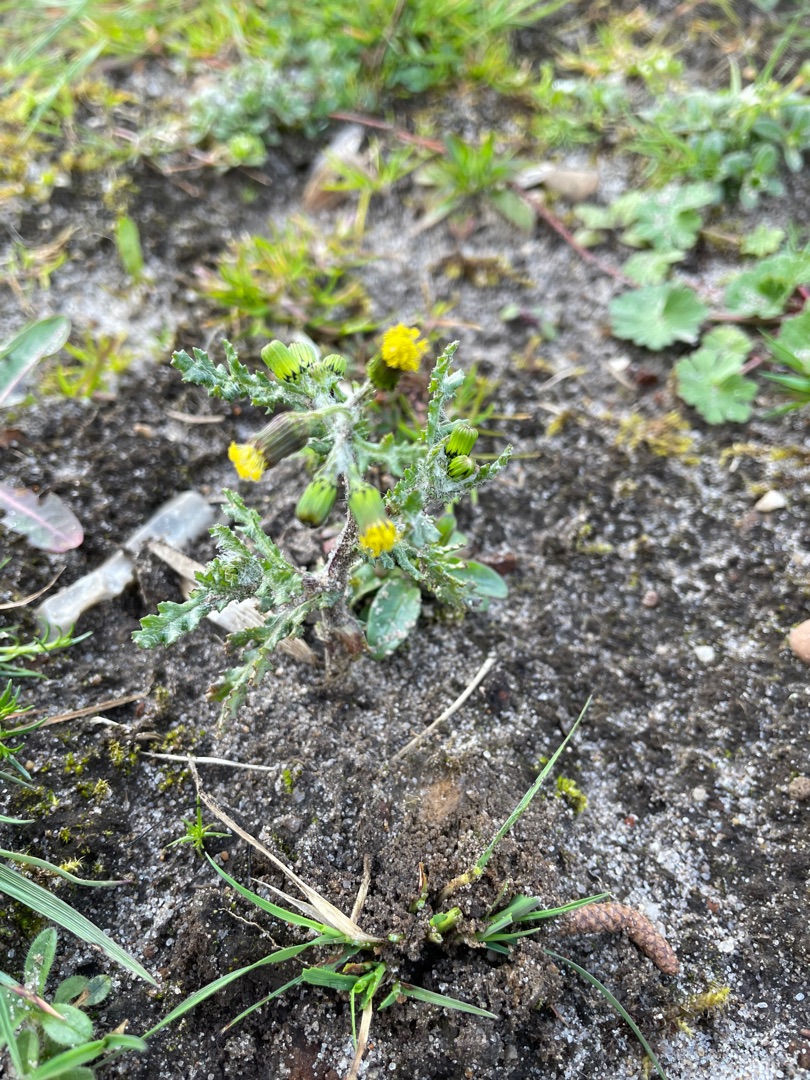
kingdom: Plantae
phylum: Tracheophyta
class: Magnoliopsida
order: Asterales
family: Asteraceae
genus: Senecio
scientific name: Senecio vulgaris
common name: Almindelig brandbæger
